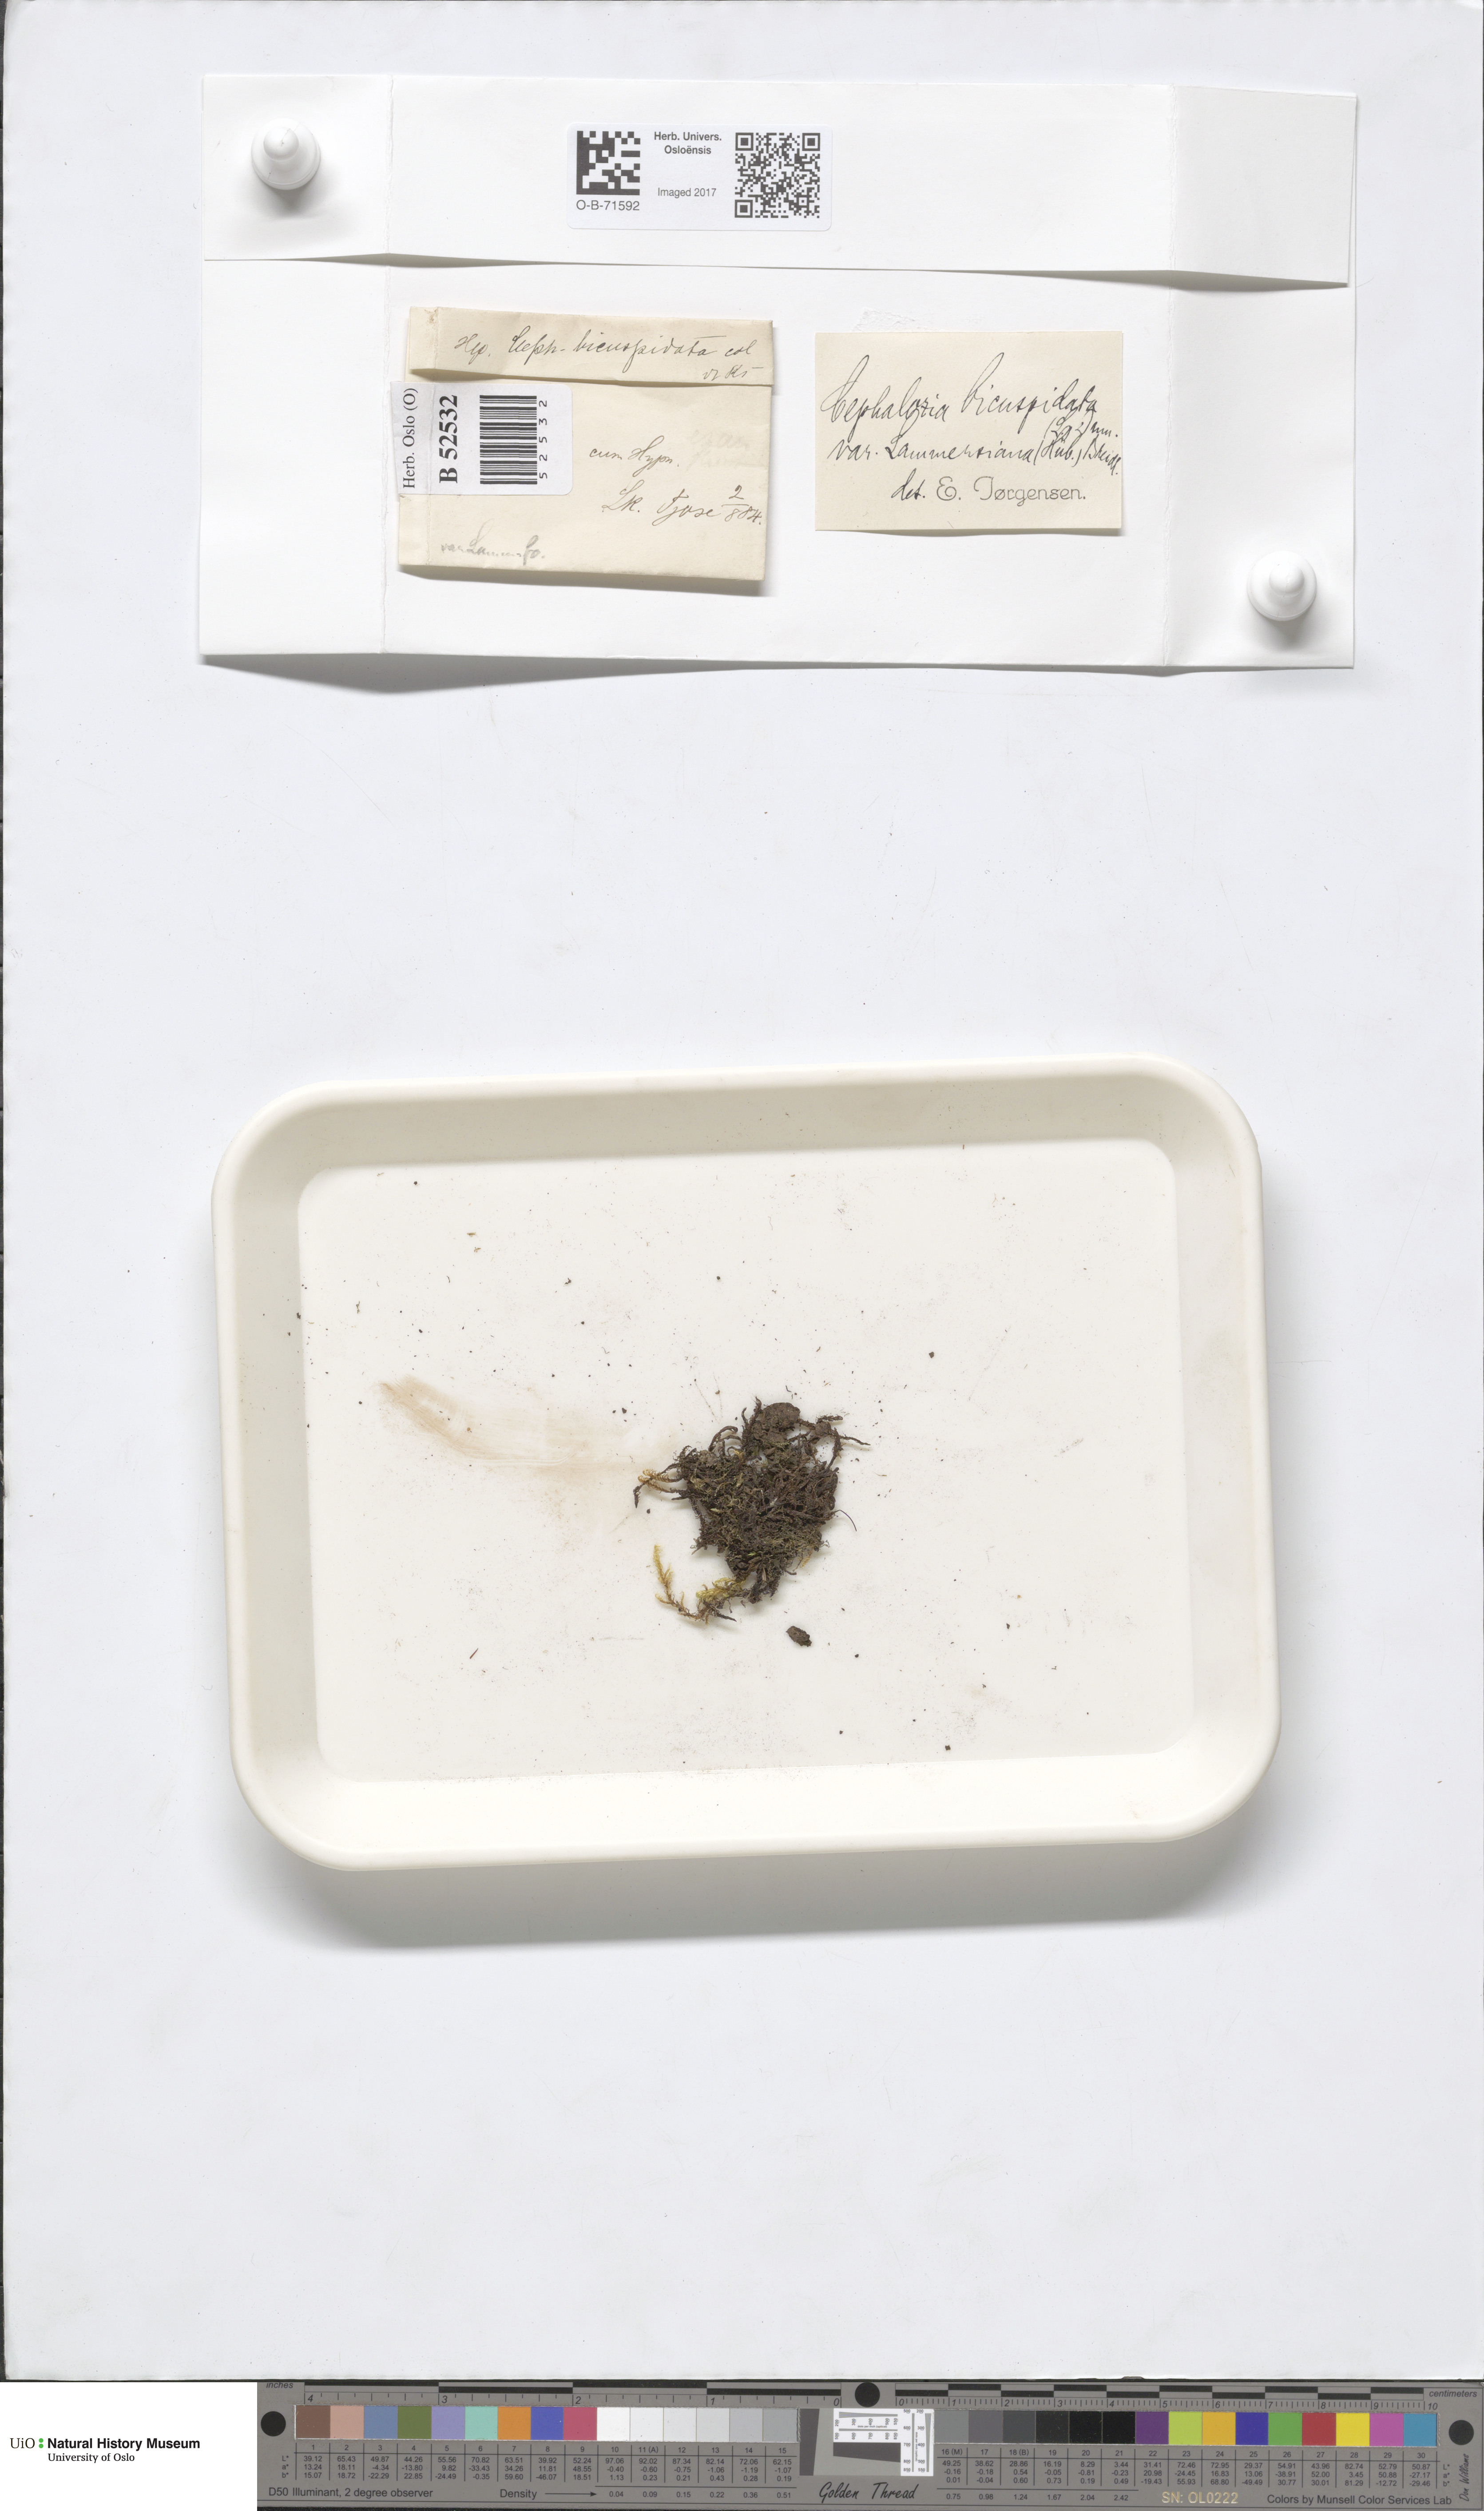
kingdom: Plantae
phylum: Marchantiophyta
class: Jungermanniopsida
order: Jungermanniales
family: Cephaloziaceae
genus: Cephalozia
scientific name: Cephalozia bicuspidata
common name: Two-horned pincerwort
